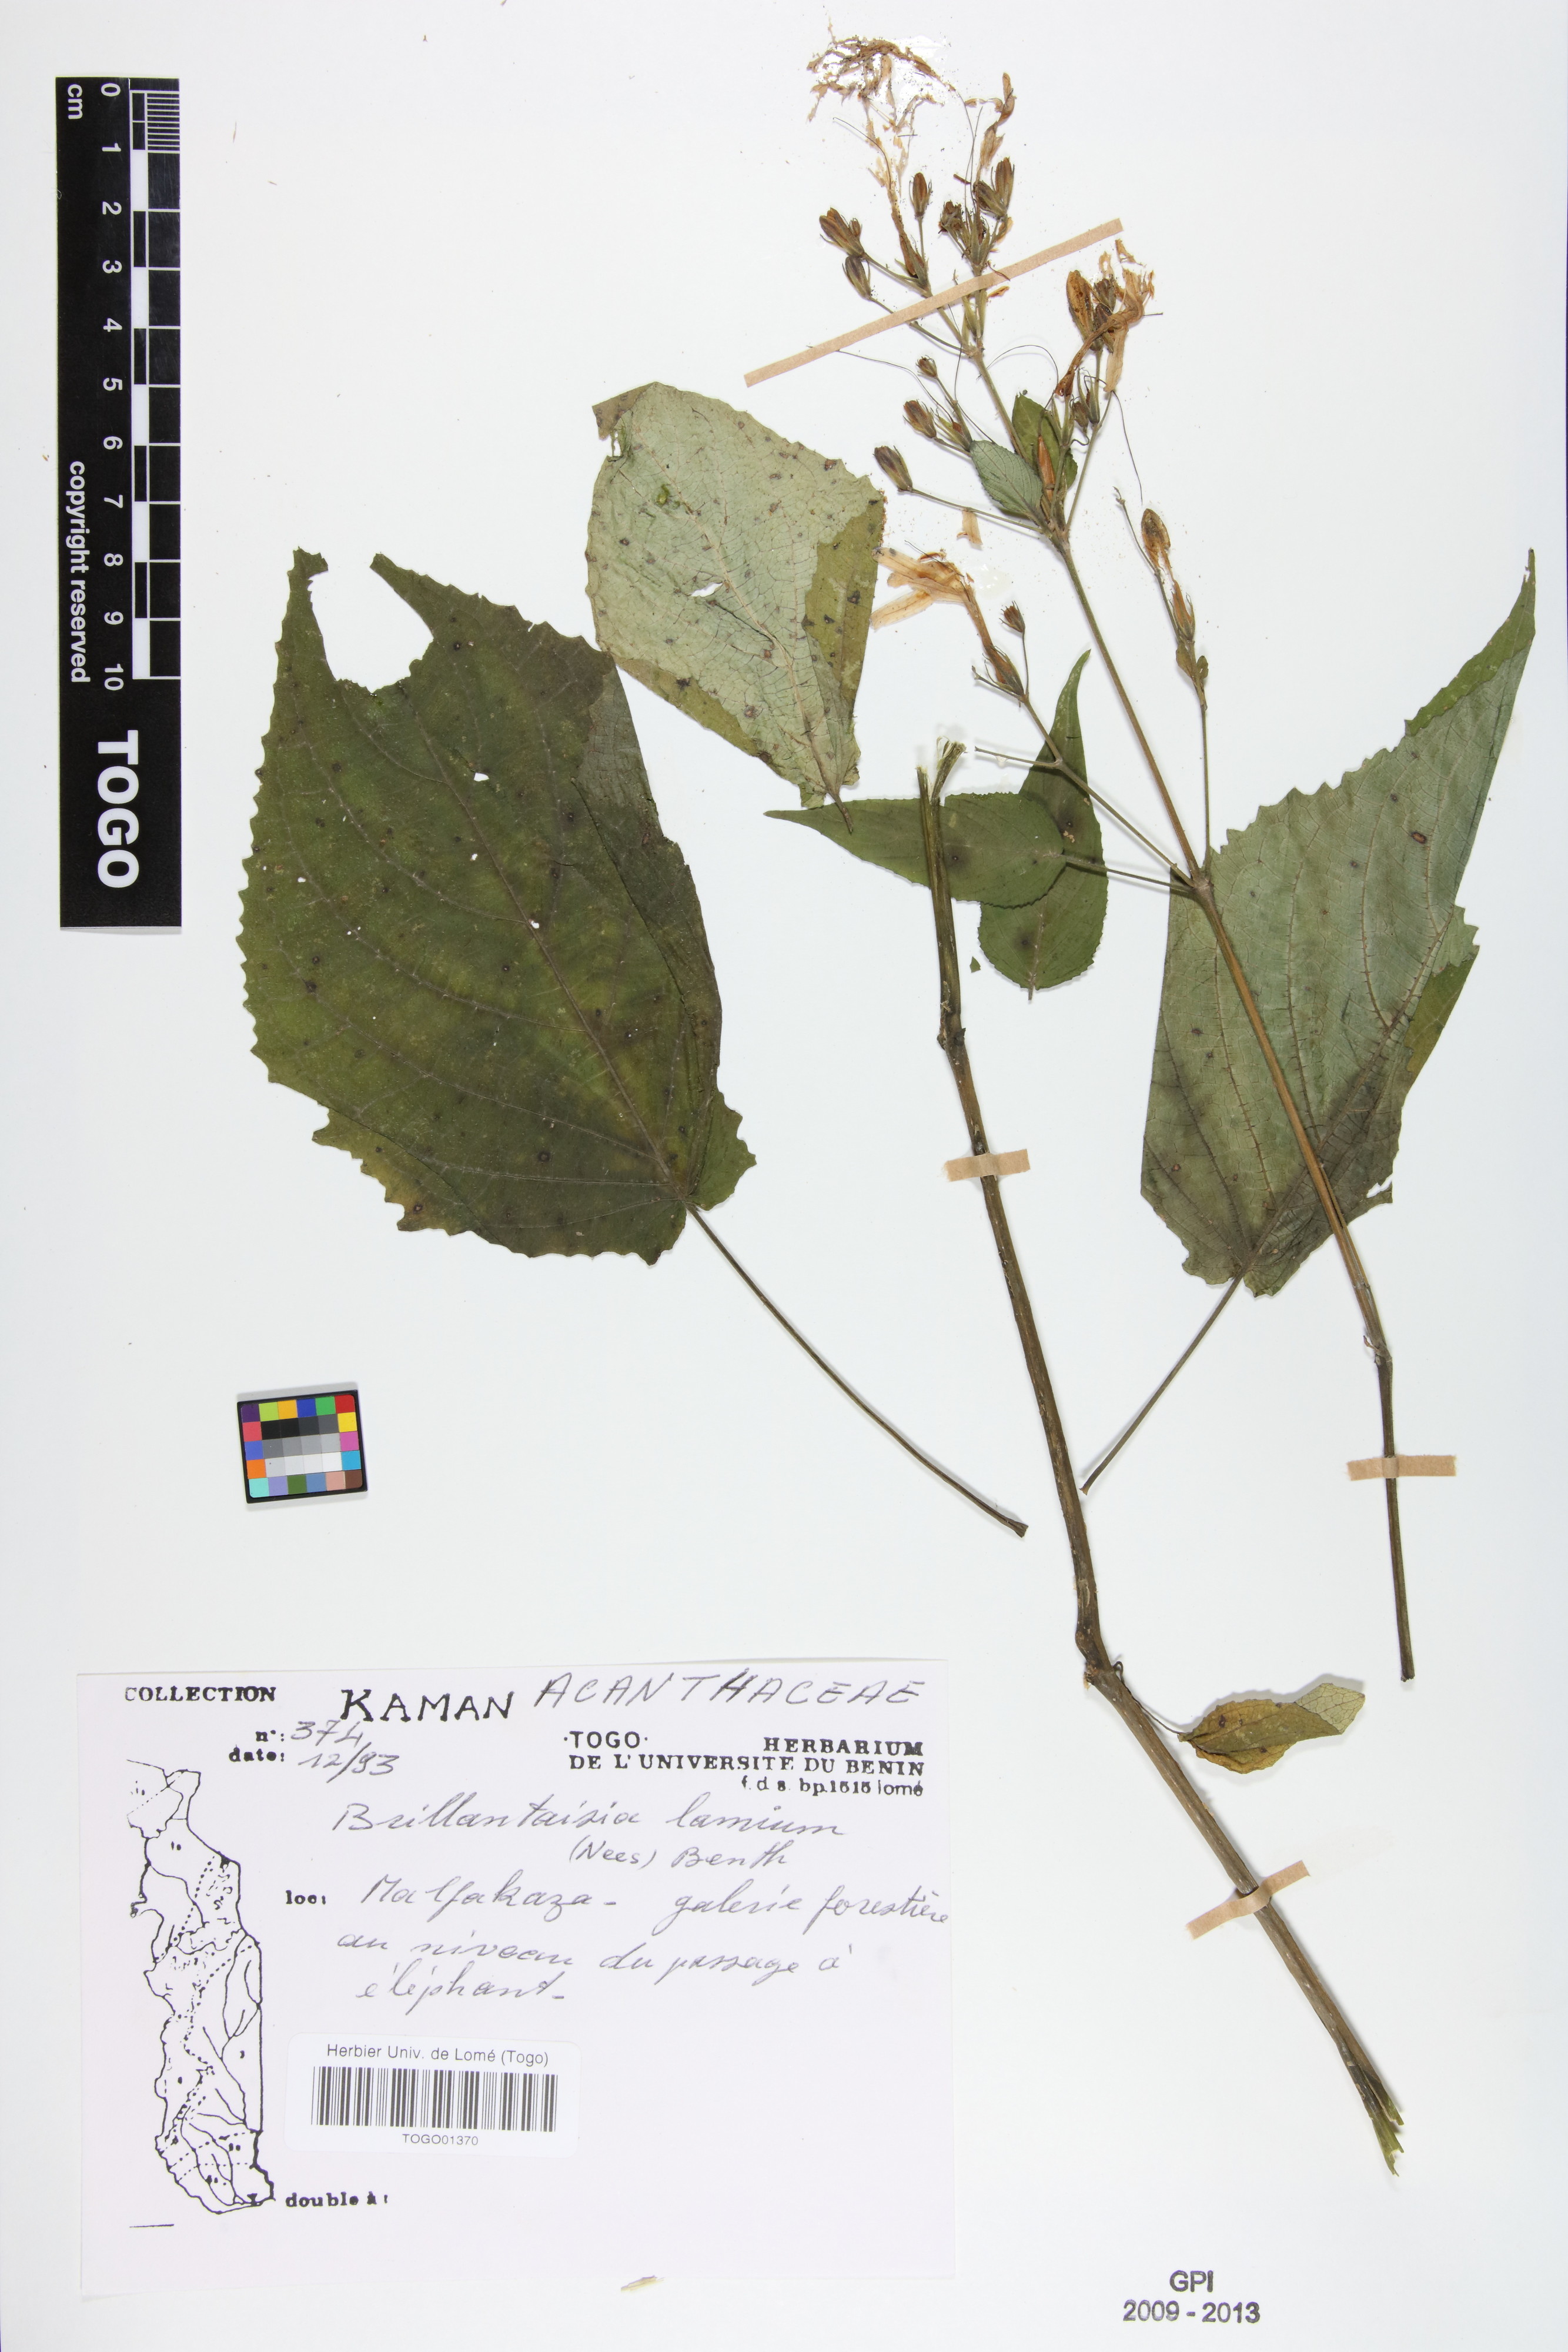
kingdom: Plantae
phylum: Tracheophyta
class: Magnoliopsida
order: Lamiales
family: Acanthaceae
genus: Brillantaisia
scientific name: Brillantaisia lamium
